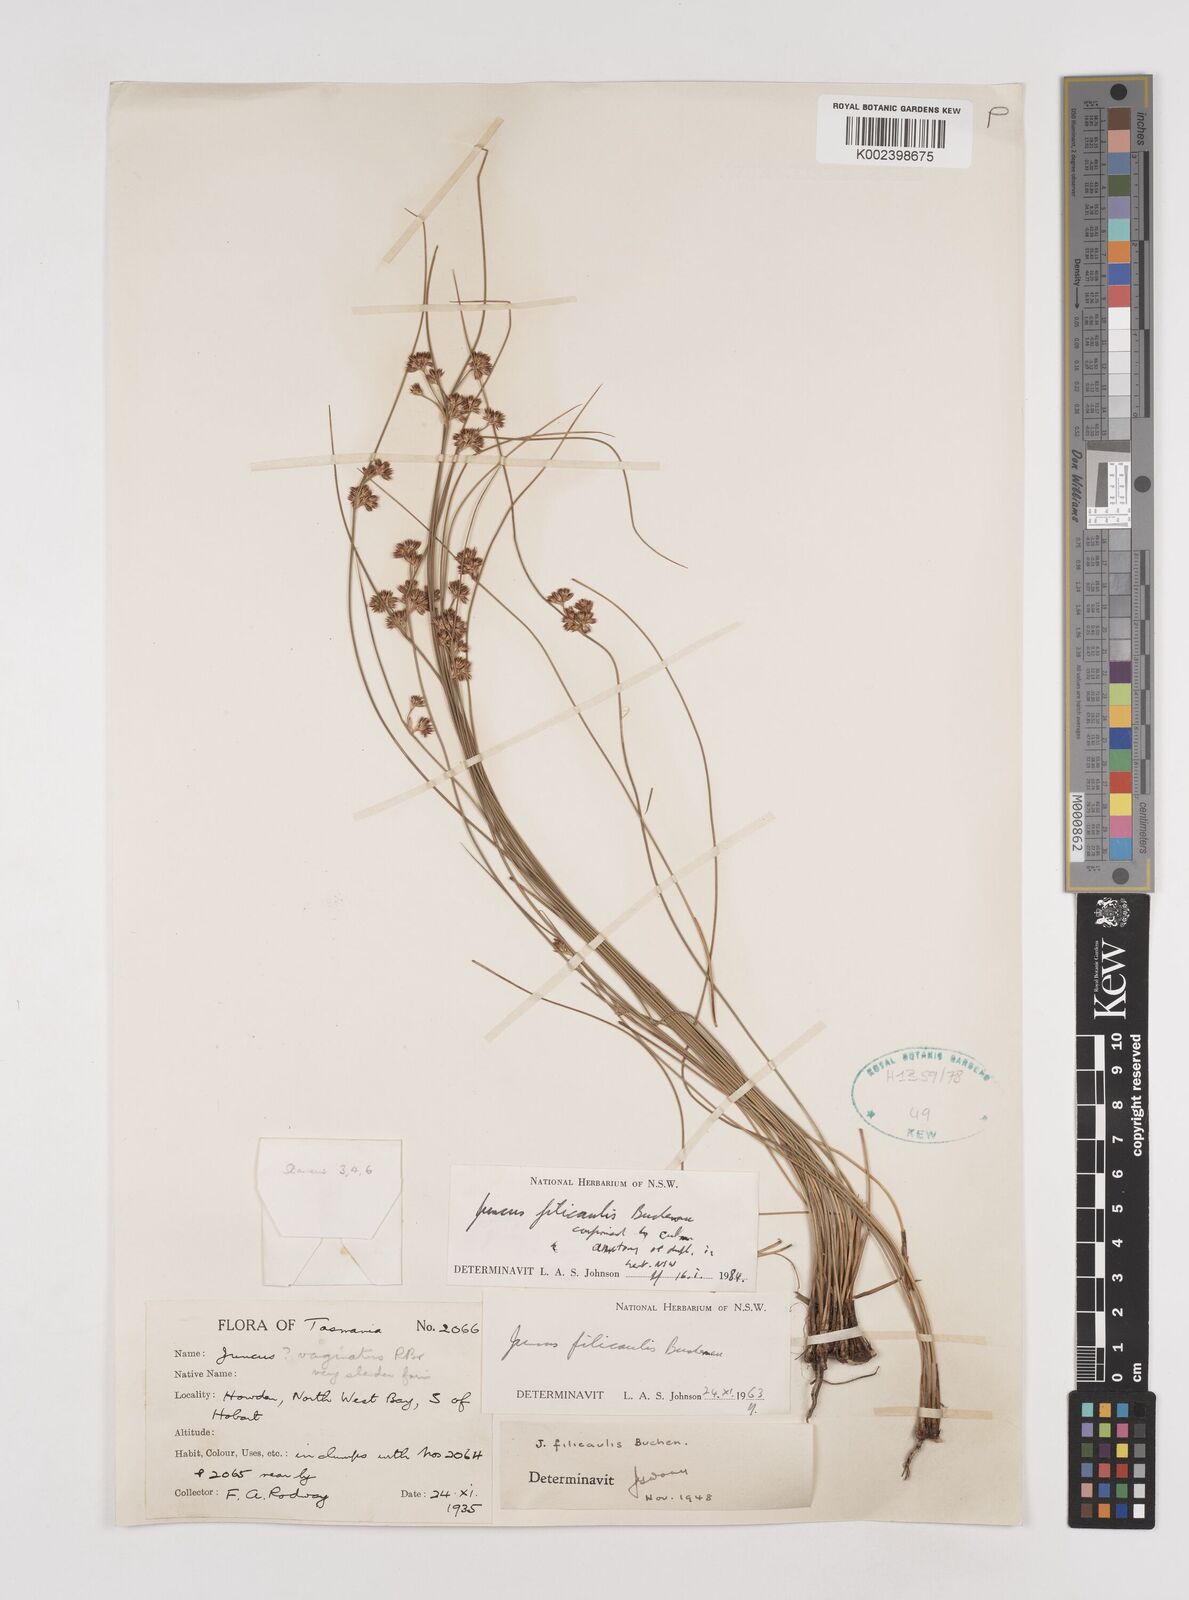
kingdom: Plantae
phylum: Tracheophyta
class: Liliopsida
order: Poales
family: Juncaceae
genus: Juncus
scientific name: Juncus filicaulis
